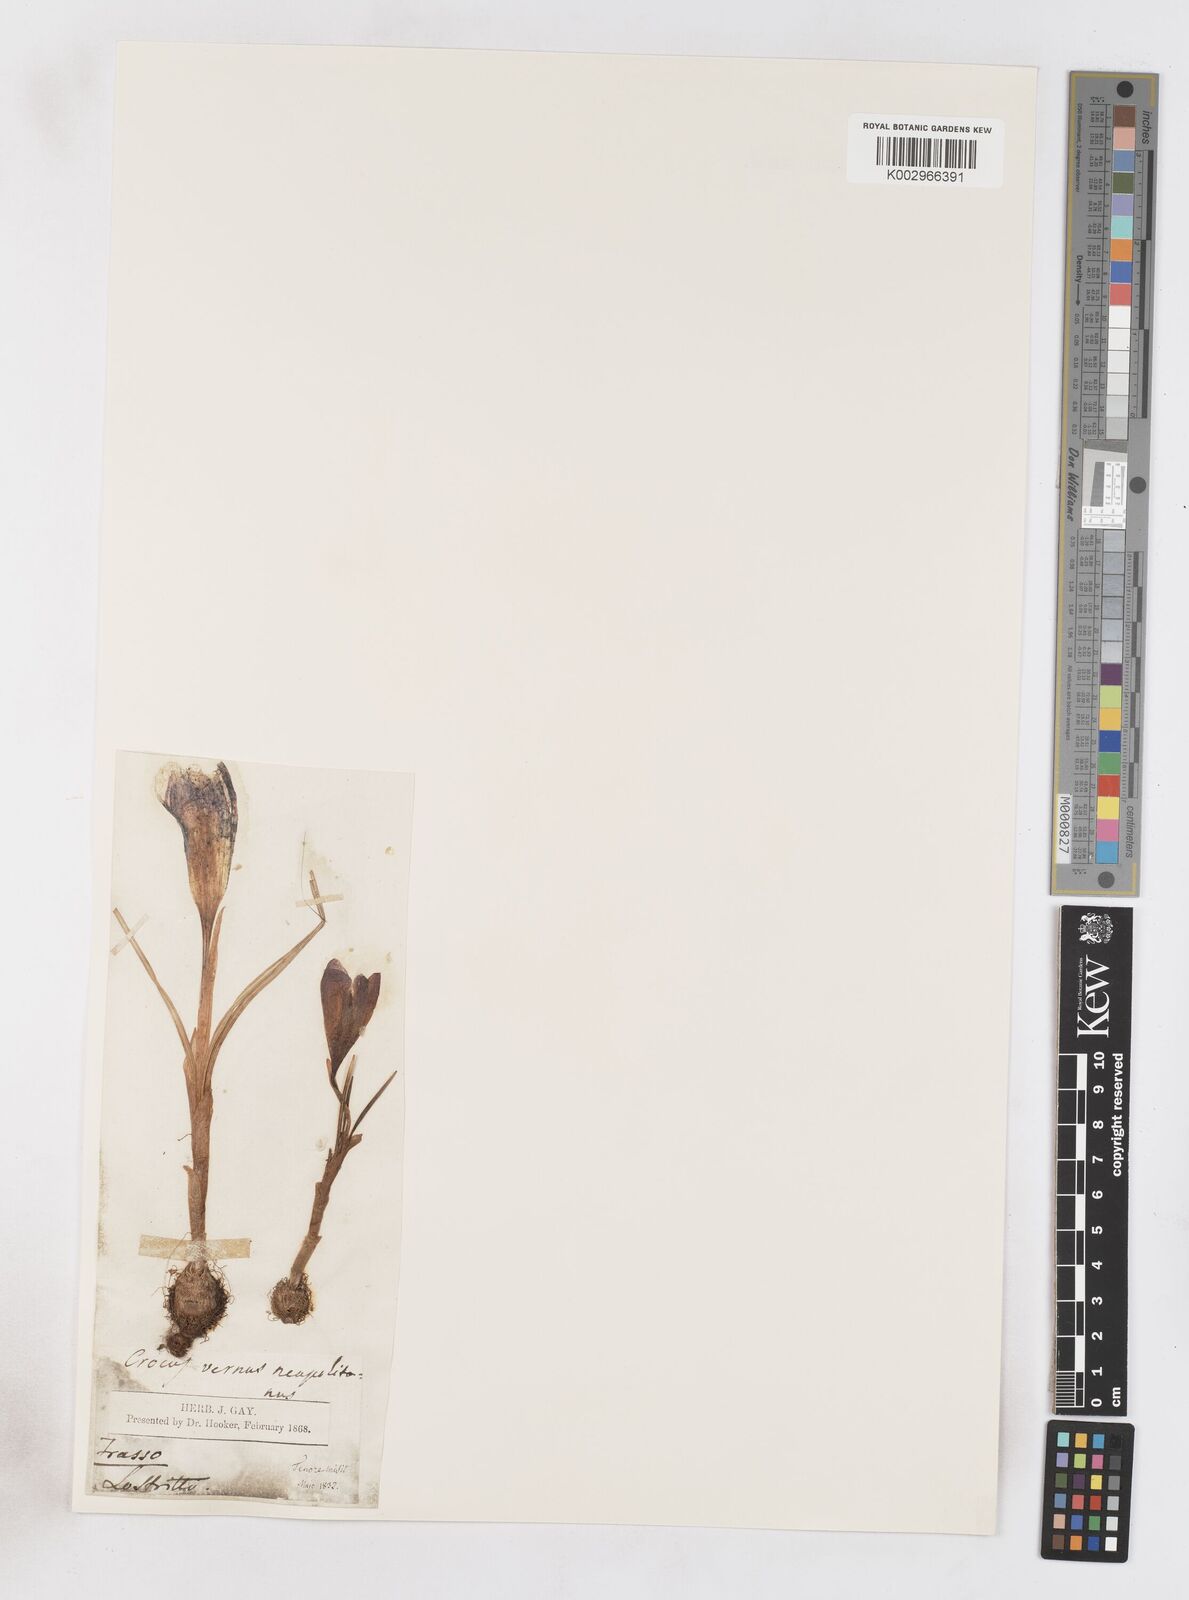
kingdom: Plantae
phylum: Tracheophyta
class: Liliopsida
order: Asparagales
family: Iridaceae
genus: Crocus
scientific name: Crocus vernus
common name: Spring crocus
